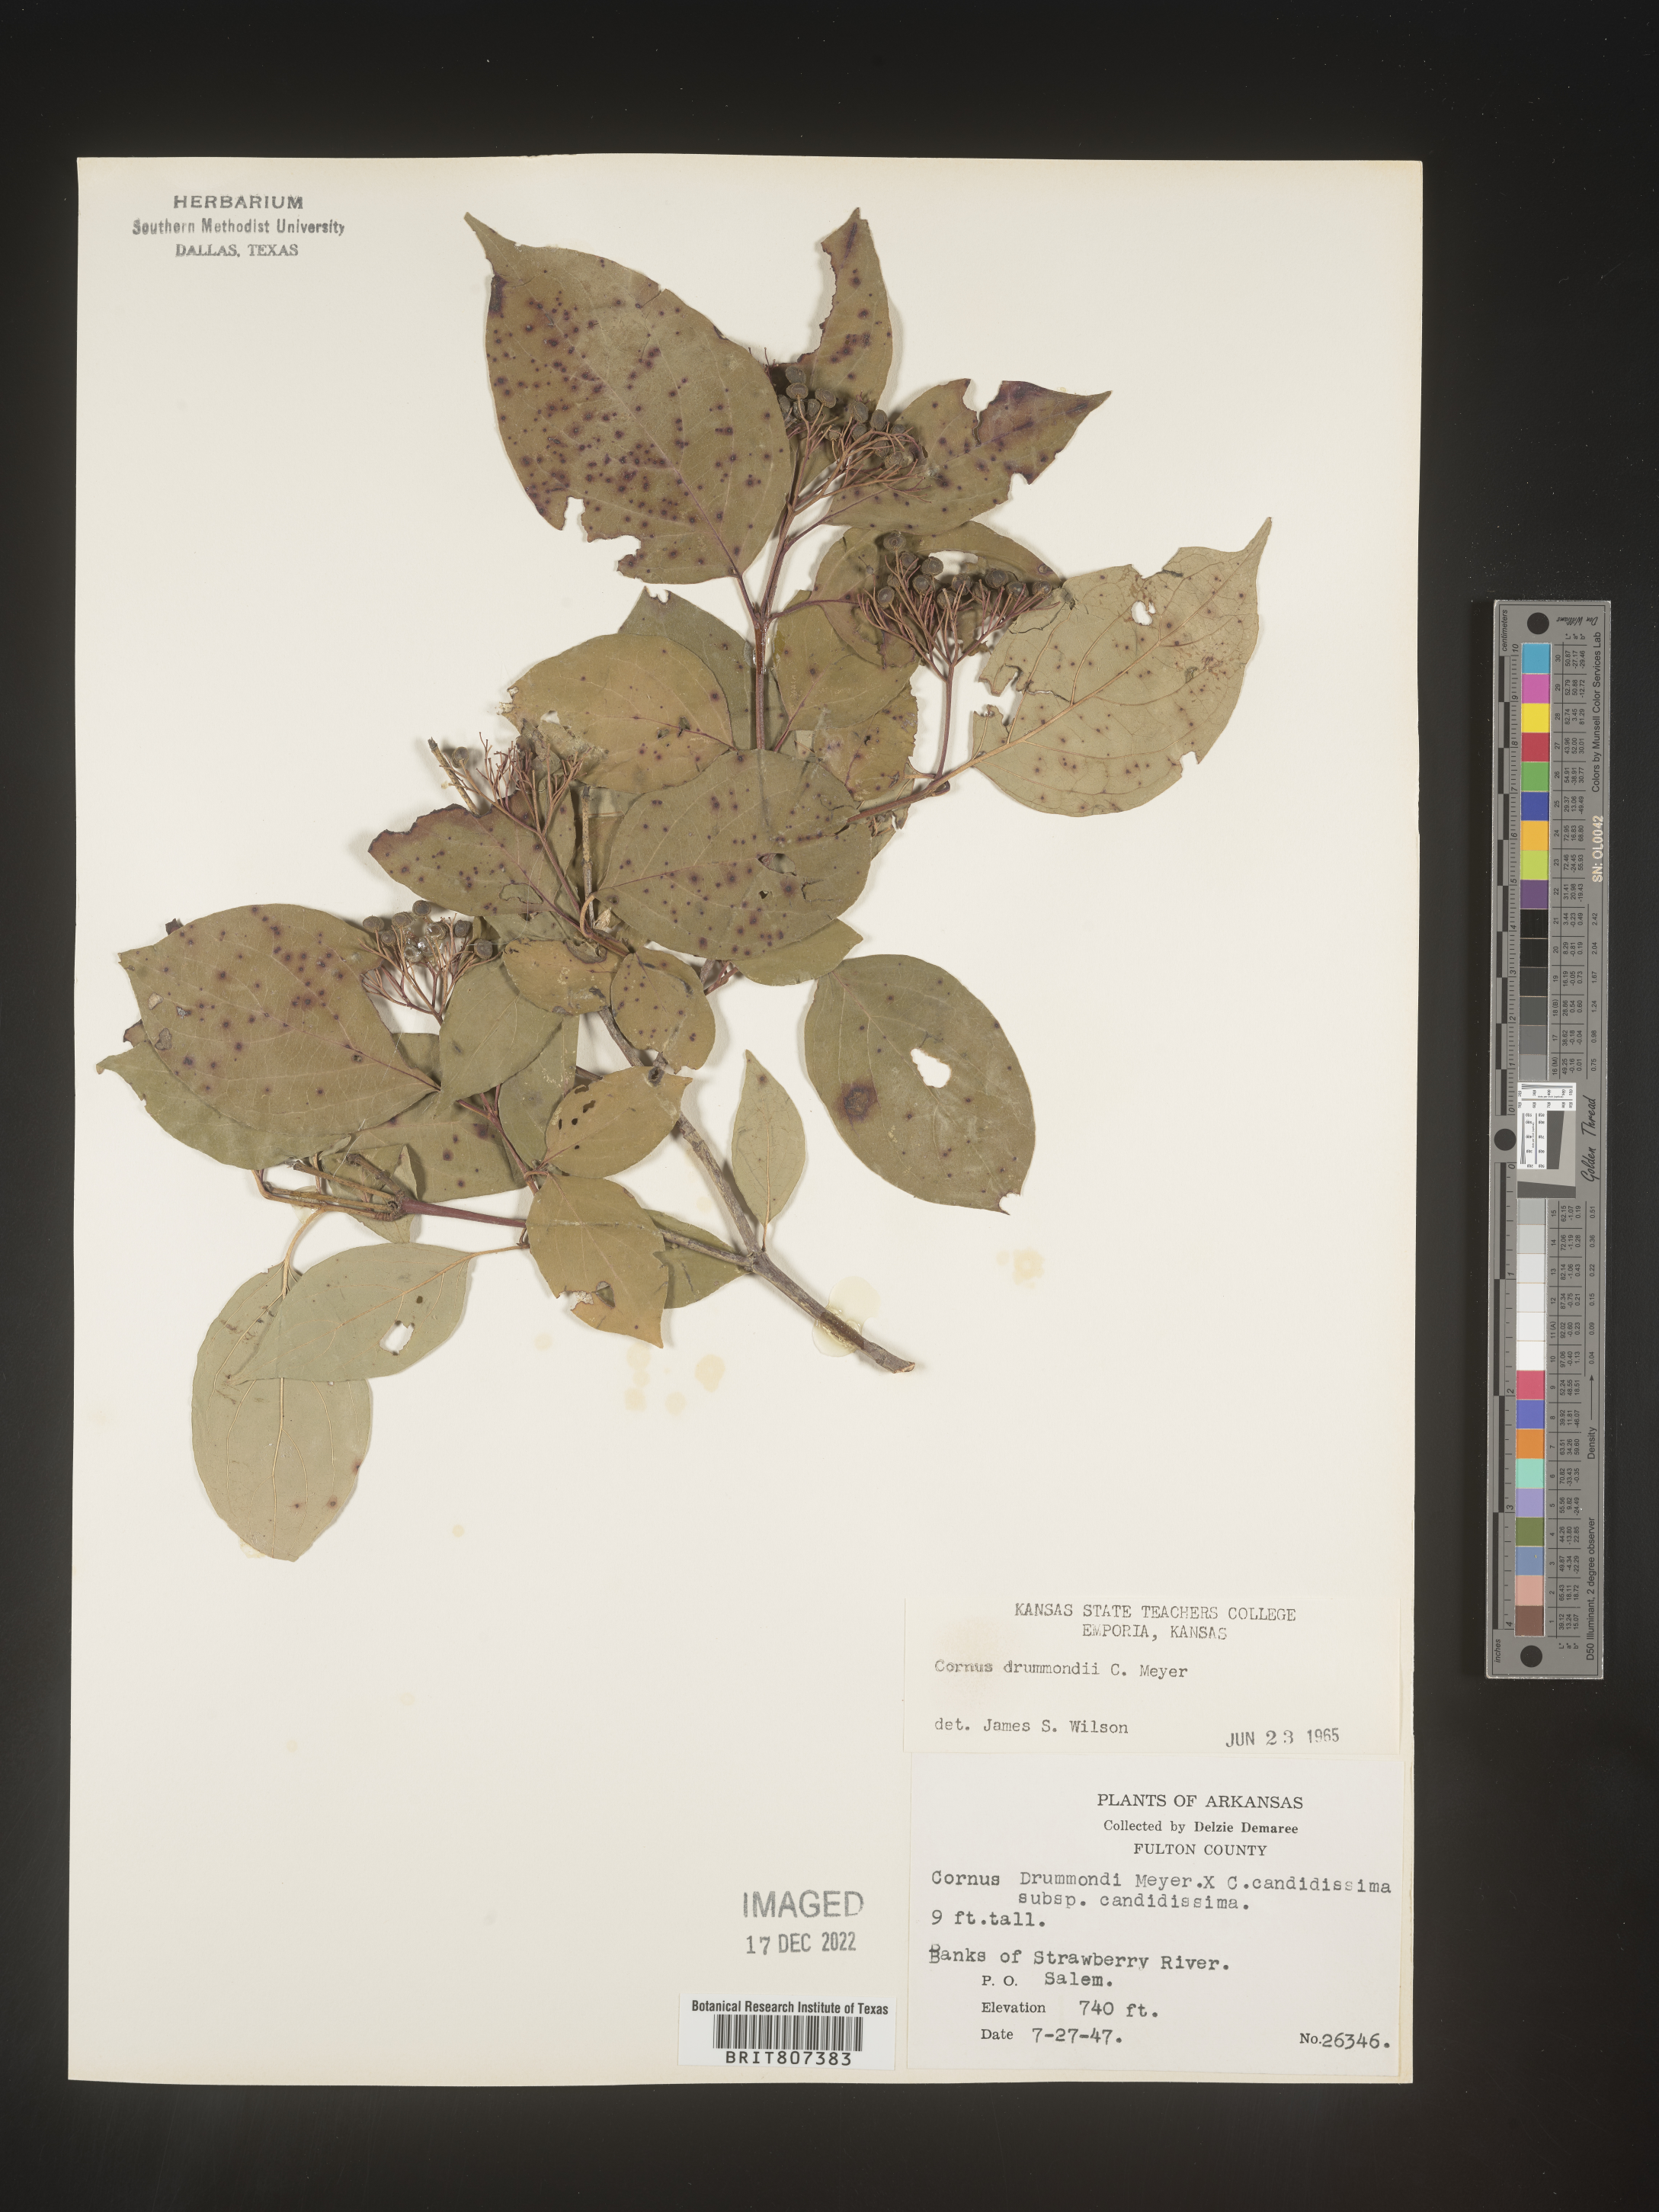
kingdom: Plantae
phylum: Tracheophyta
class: Magnoliopsida
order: Cornales
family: Cornaceae
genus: Cornus
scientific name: Cornus drummondii
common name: Rough-leaf dogwood
